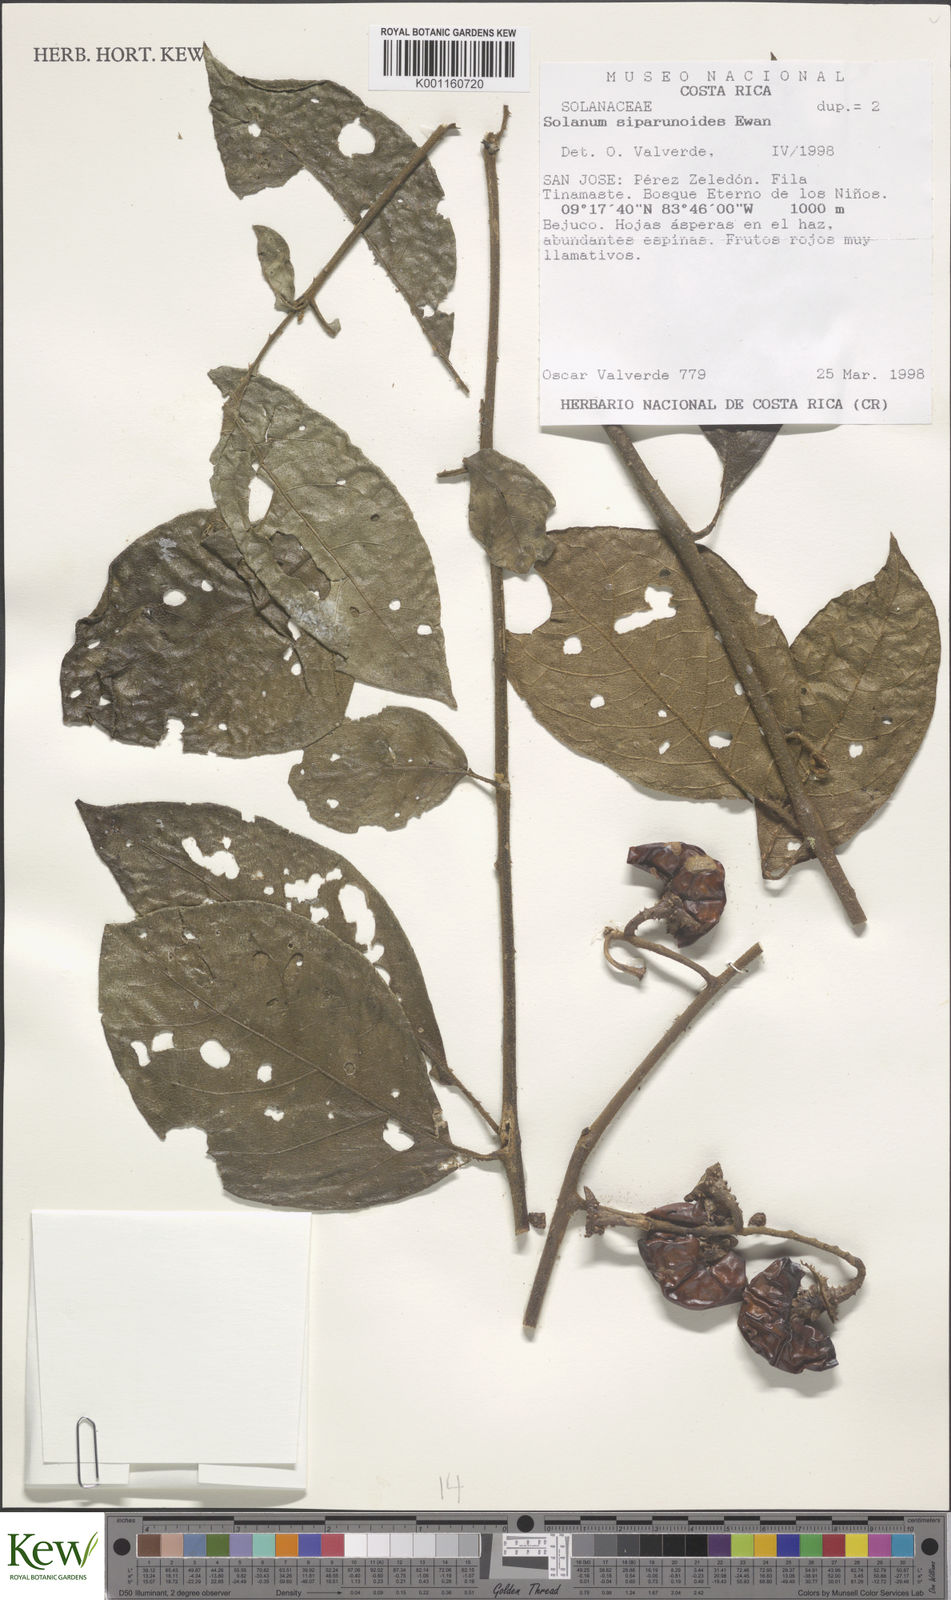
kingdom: Plantae
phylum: Tracheophyta
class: Magnoliopsida
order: Solanales
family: Solanaceae
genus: Solanum
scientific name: Solanum aturense
